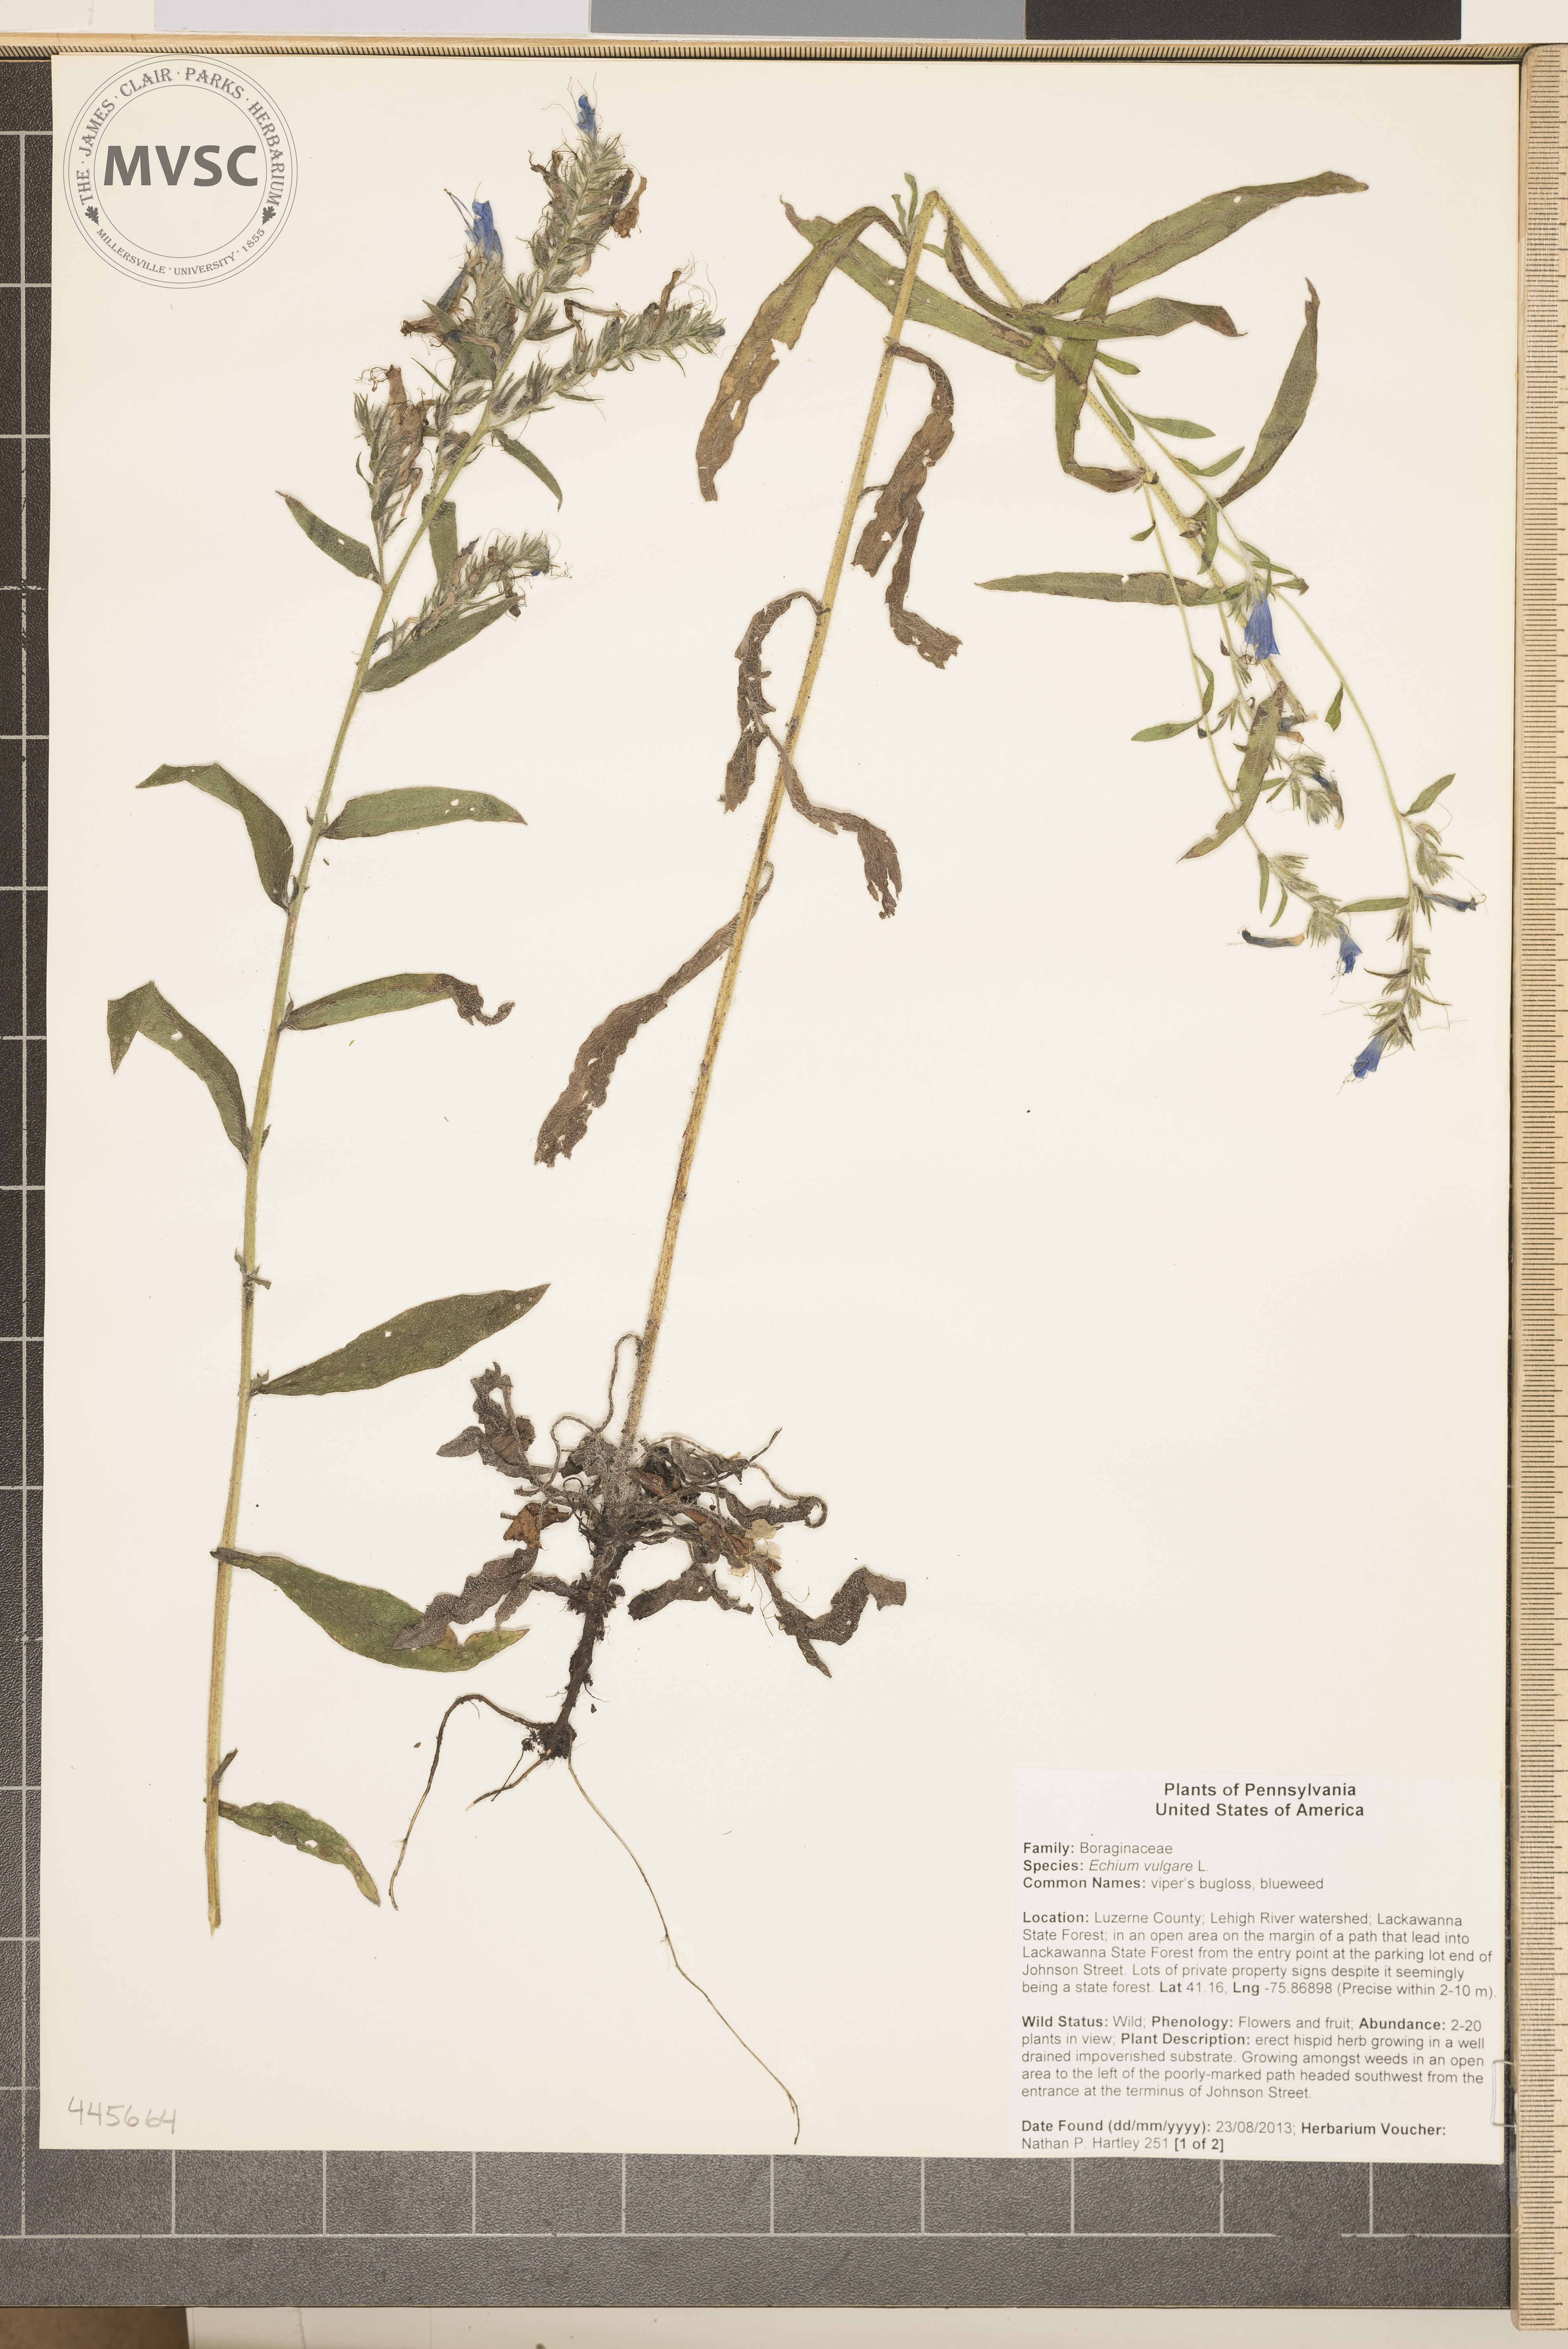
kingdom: Plantae
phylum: Tracheophyta
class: Magnoliopsida
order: Boraginales
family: Boraginaceae
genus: Echium
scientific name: Echium vulgare
